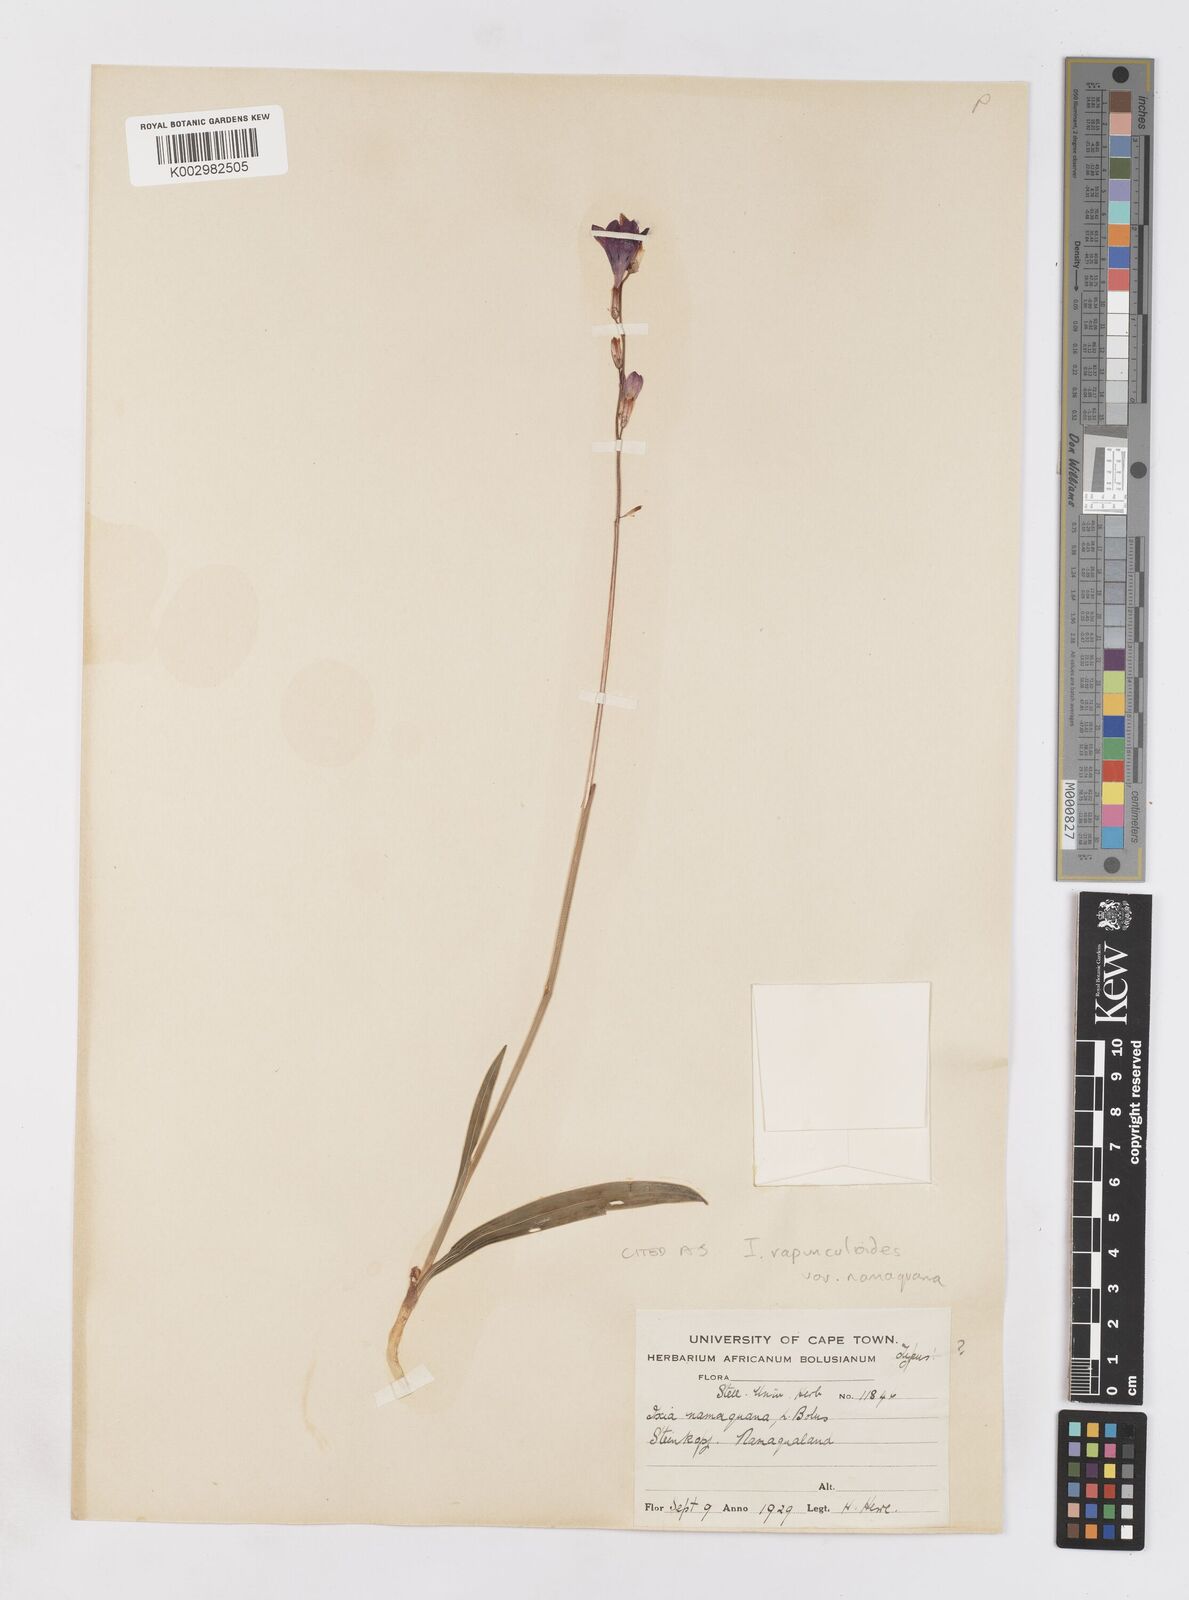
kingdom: Plantae
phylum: Tracheophyta
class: Liliopsida
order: Asparagales
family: Iridaceae
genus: Ixia
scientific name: Ixia rapunculoides
